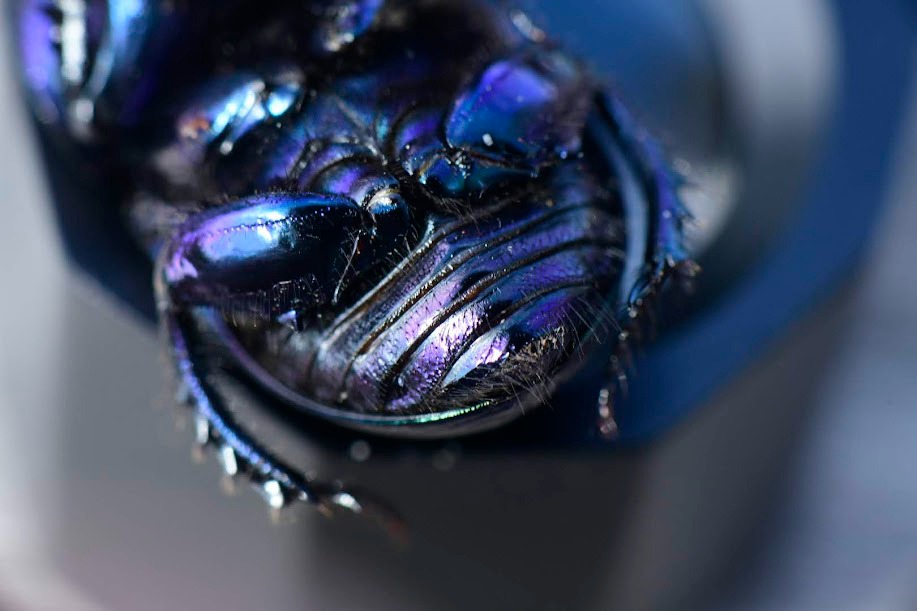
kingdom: Animalia
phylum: Arthropoda
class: Insecta
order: Coleoptera
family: Geotrupidae
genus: Geotrupes
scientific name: Geotrupes spiniger
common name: Markskarnbasse
